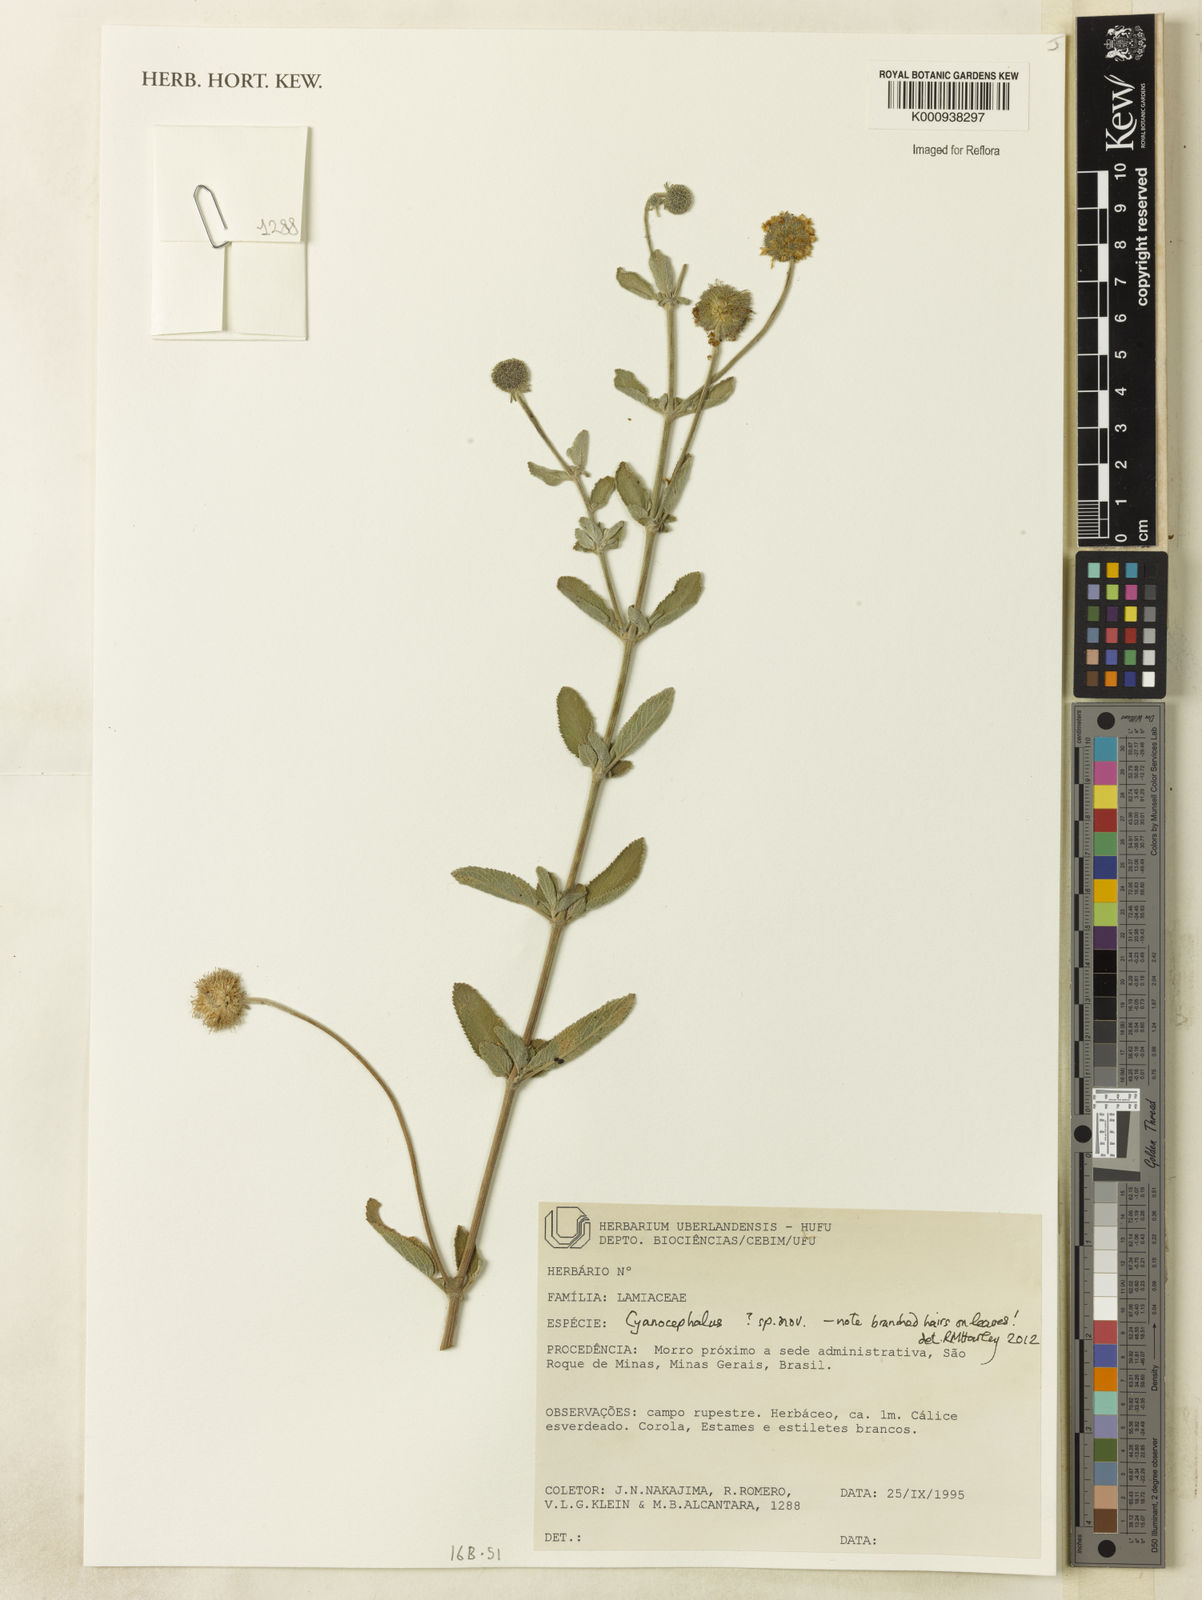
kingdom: Plantae
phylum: Tracheophyta
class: Magnoliopsida
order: Lamiales
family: Lamiaceae
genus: Cyanocephalus
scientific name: Cyanocephalus
